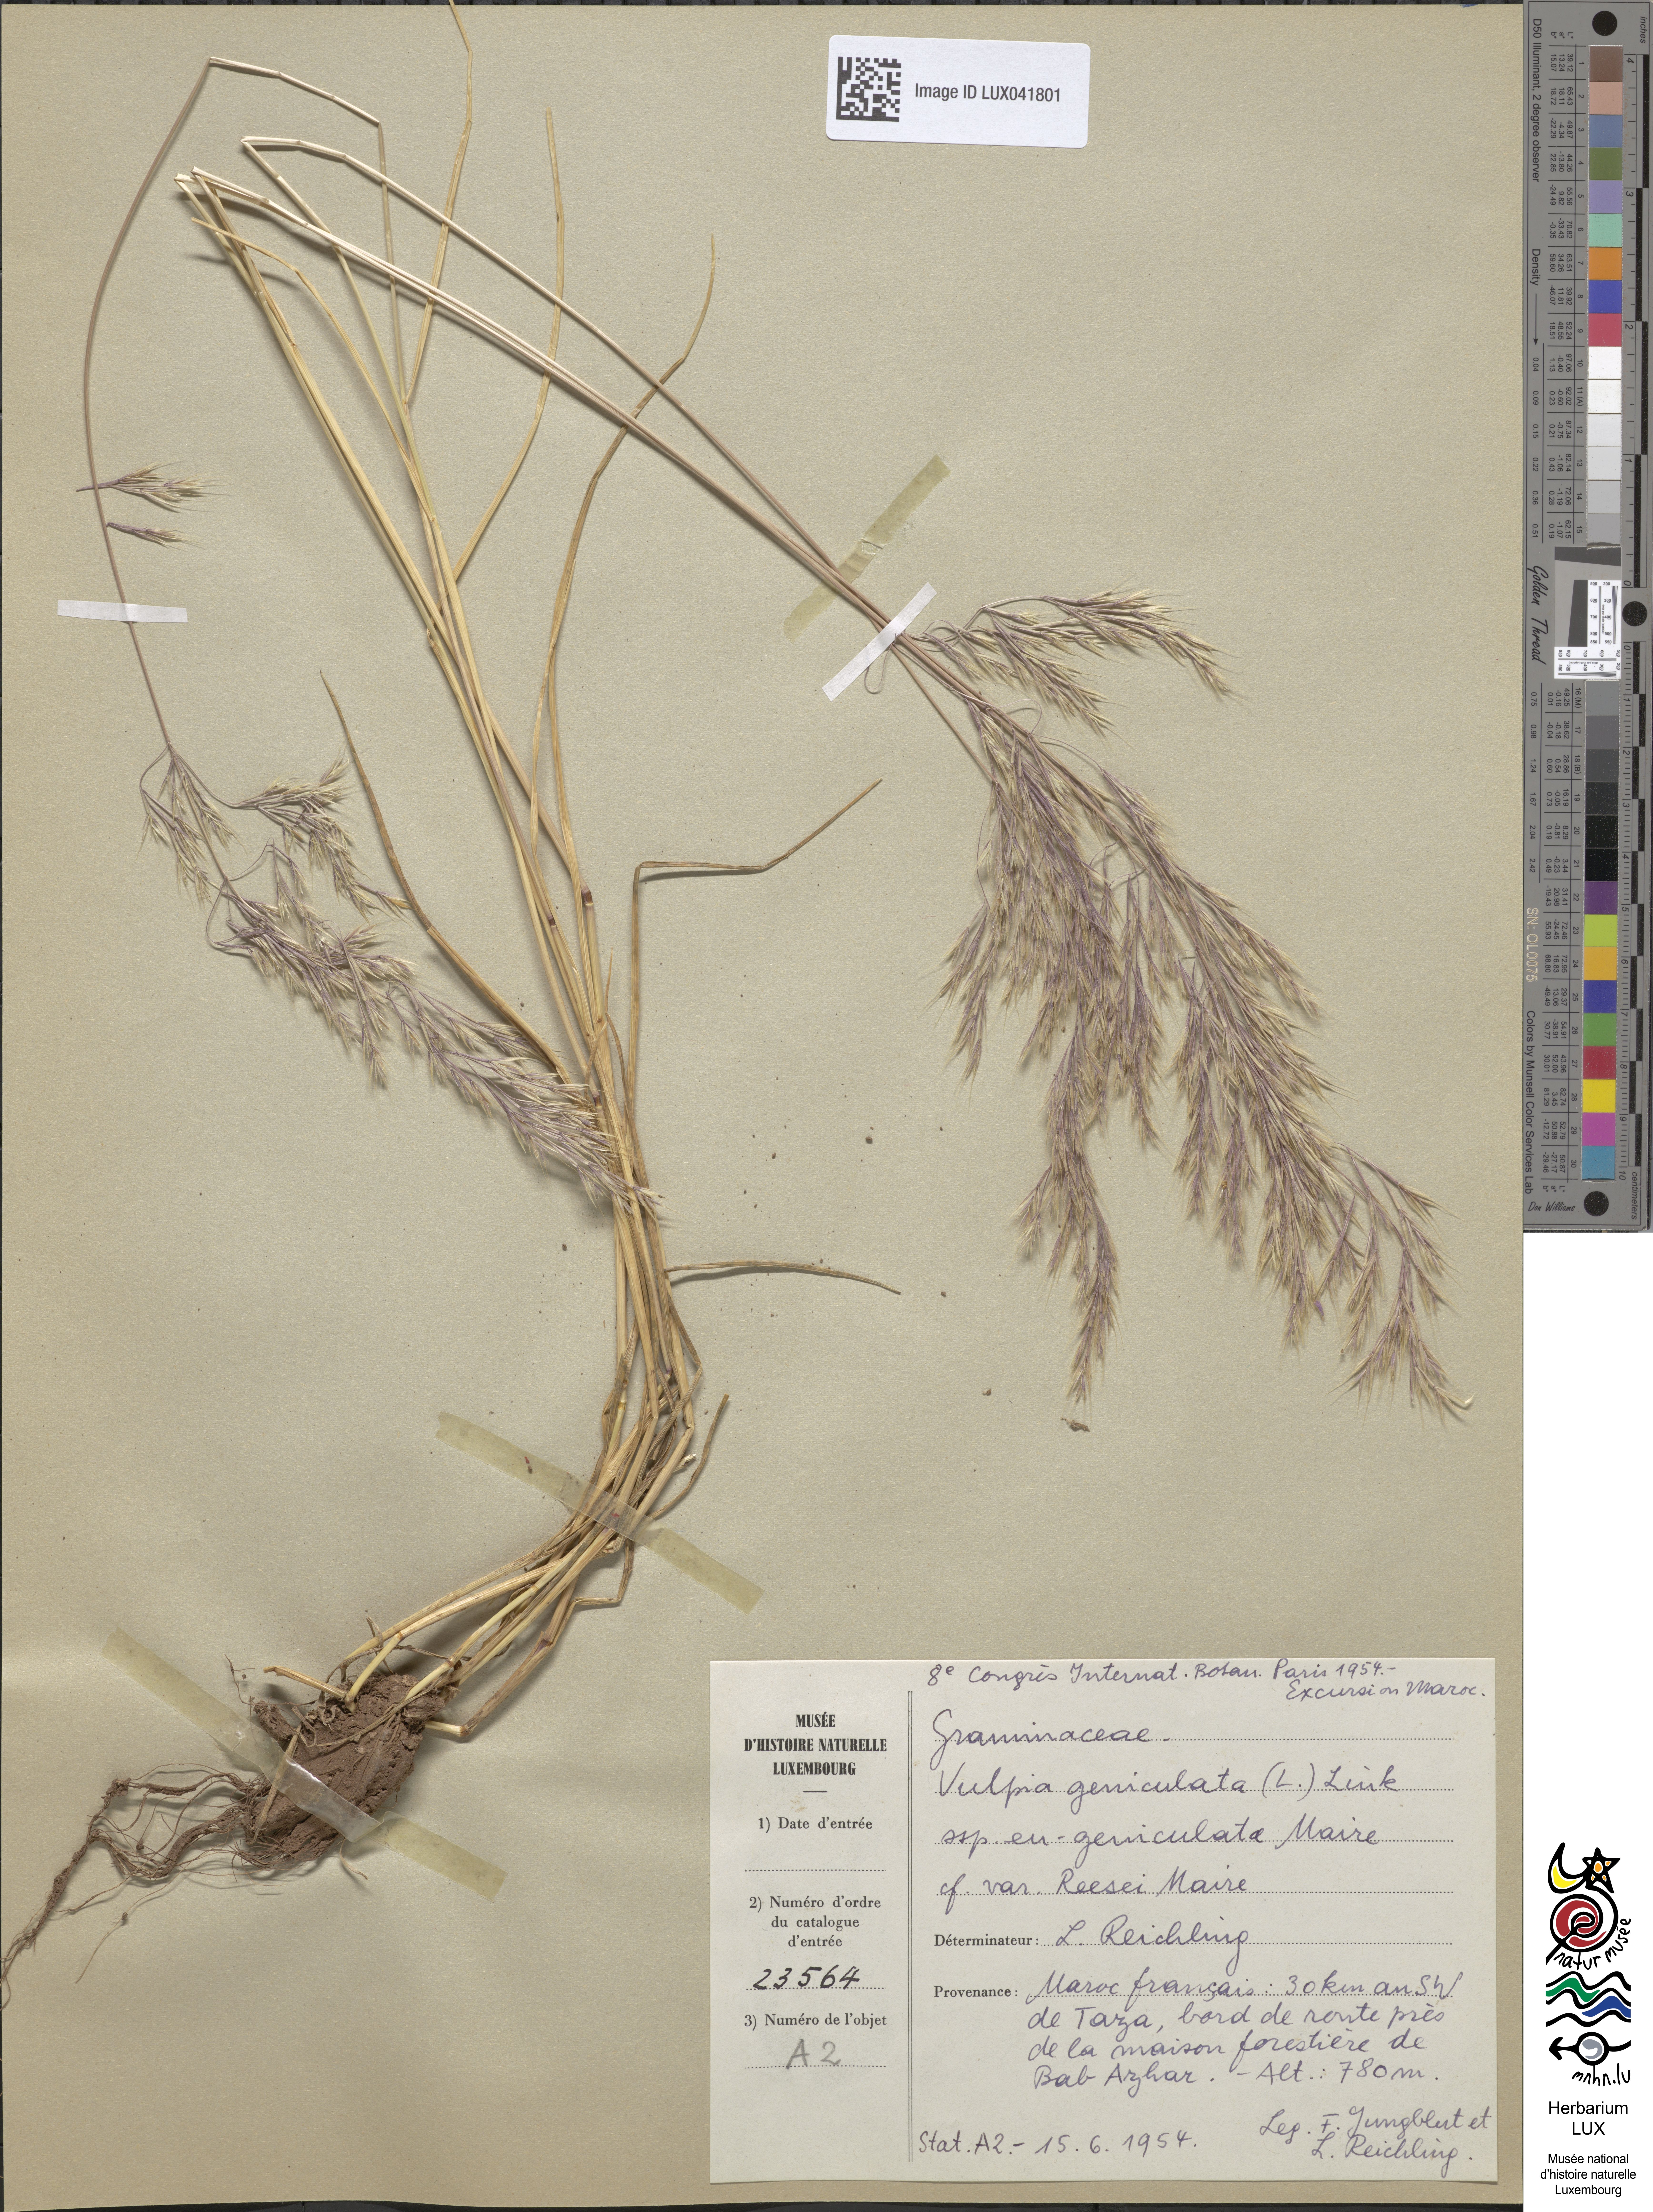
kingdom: Plantae
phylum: Tracheophyta
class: Liliopsida
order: Poales
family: Poaceae
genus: Festuca
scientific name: Festuca geniculata
